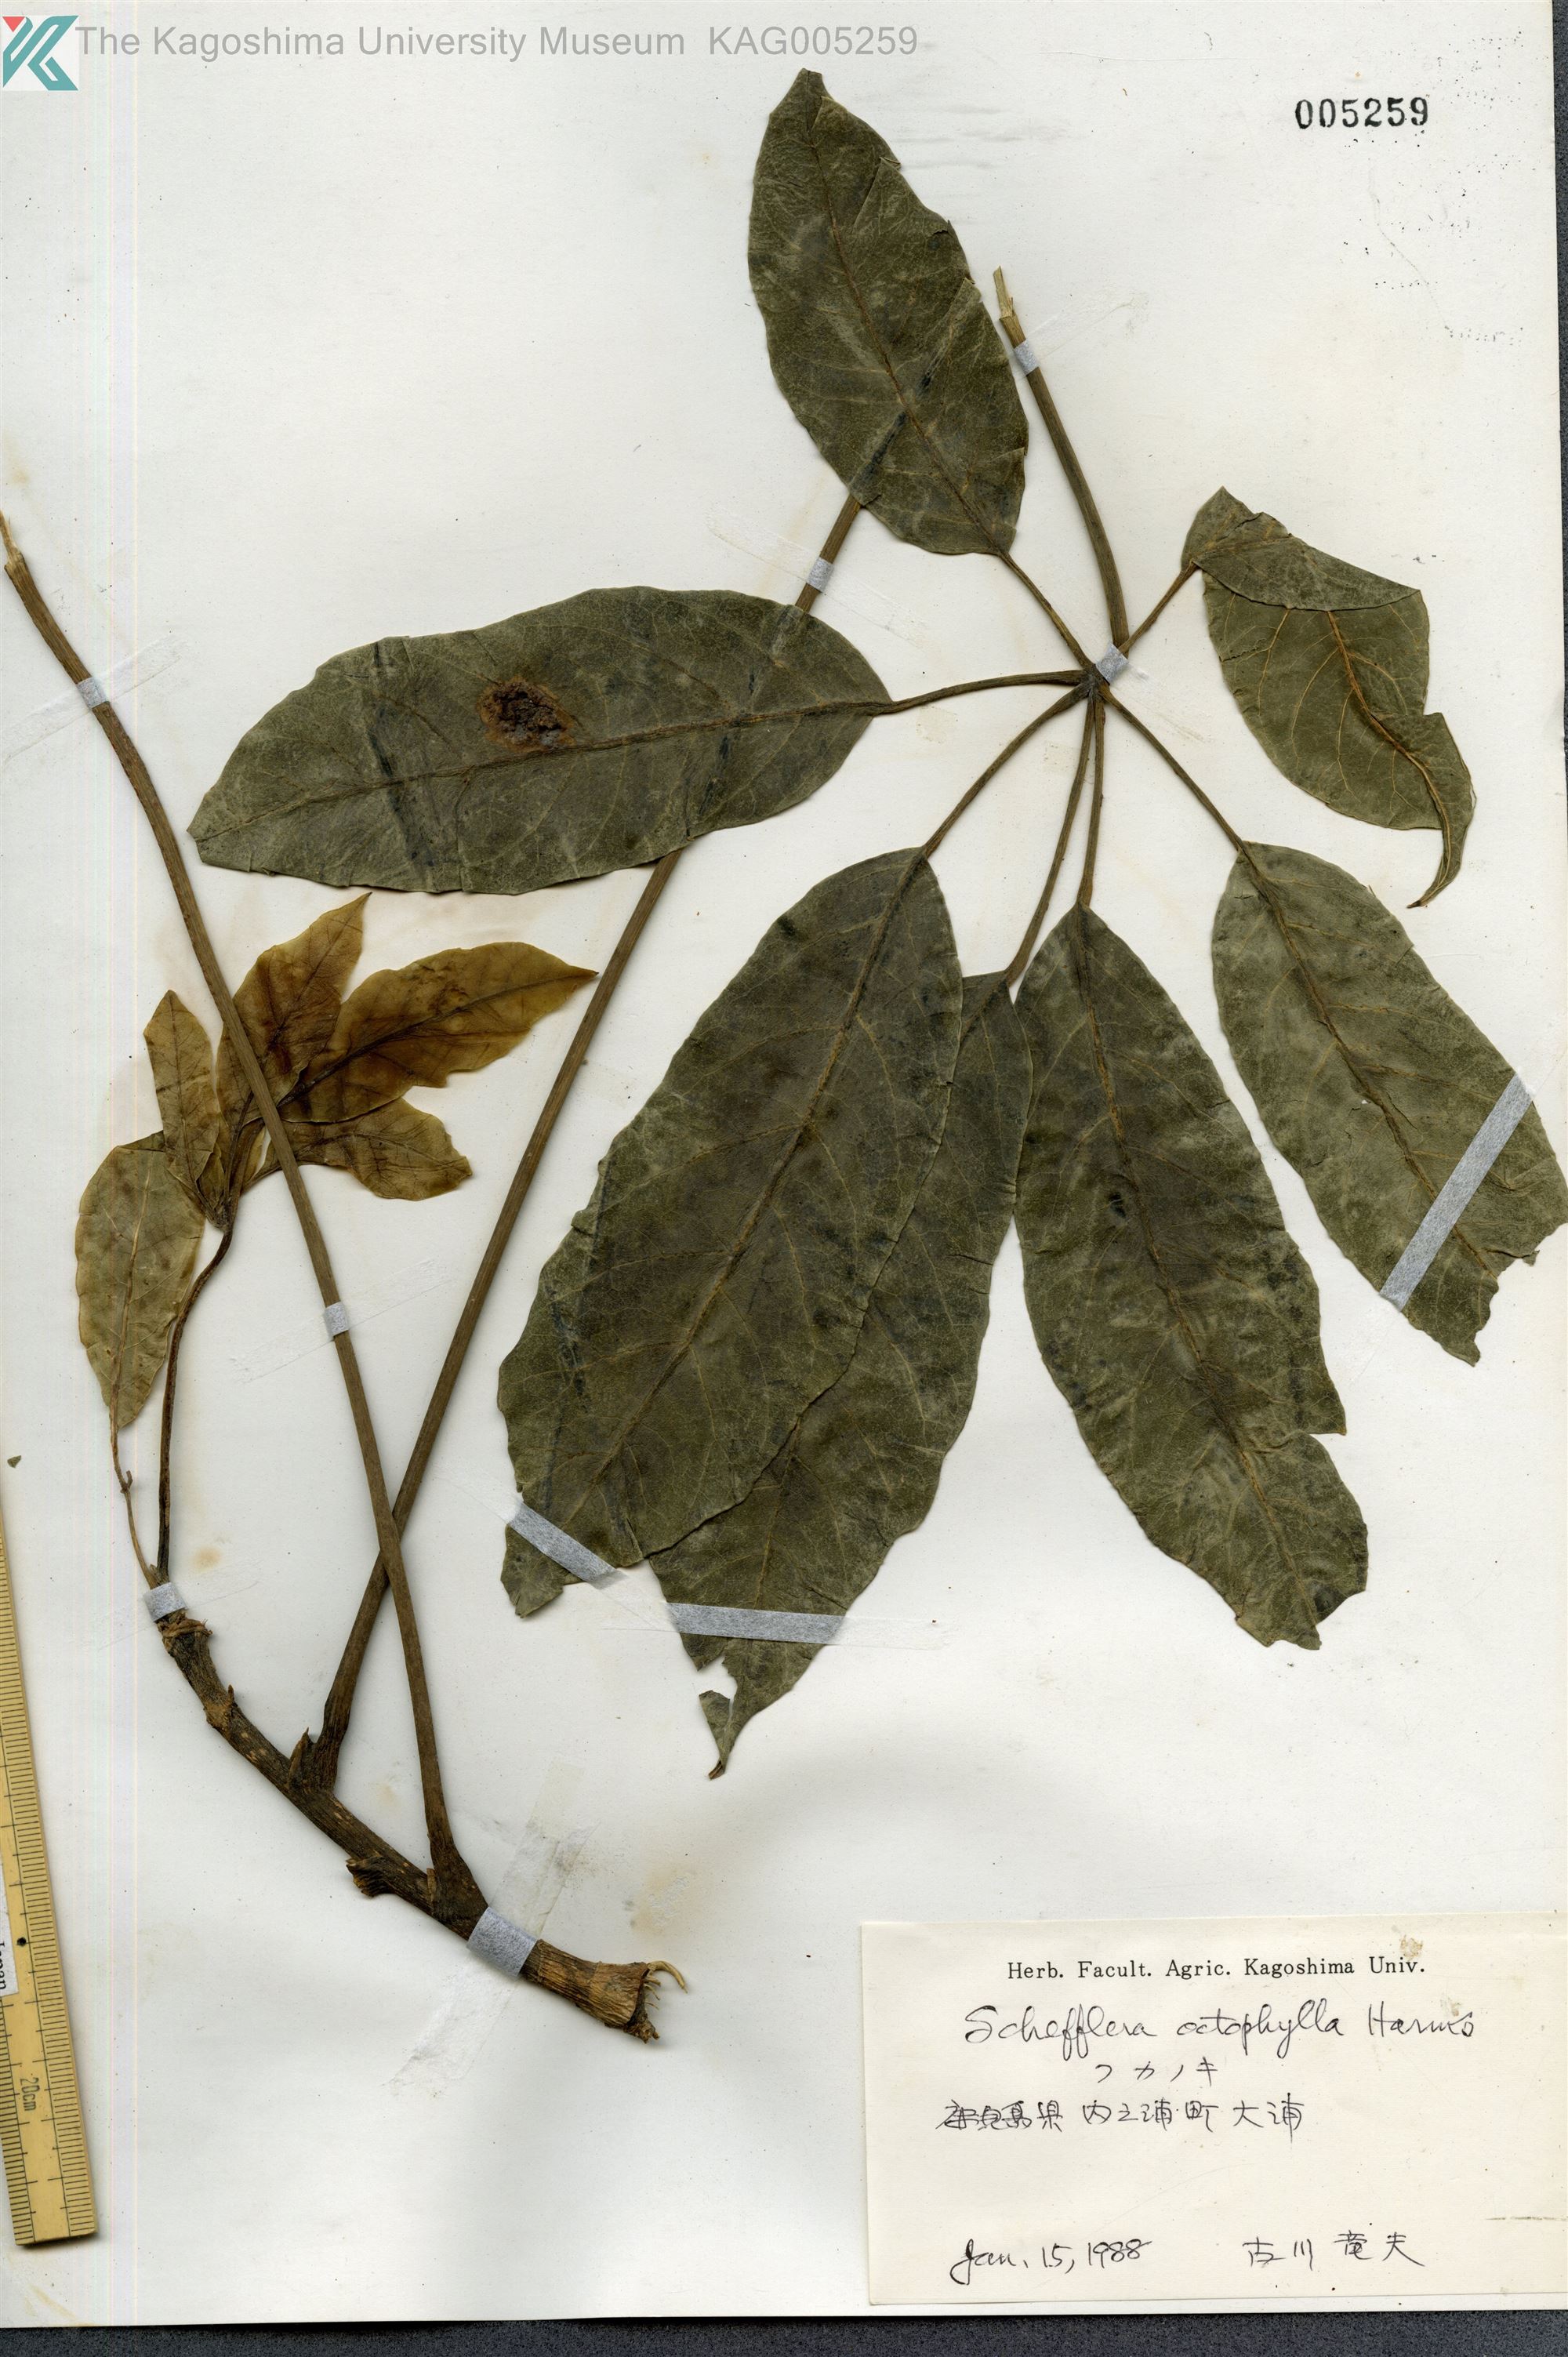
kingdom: Plantae
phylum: Tracheophyta
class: Magnoliopsida
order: Apiales
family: Araliaceae
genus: Heptapleurum
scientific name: Heptapleurum heptaphyllum
